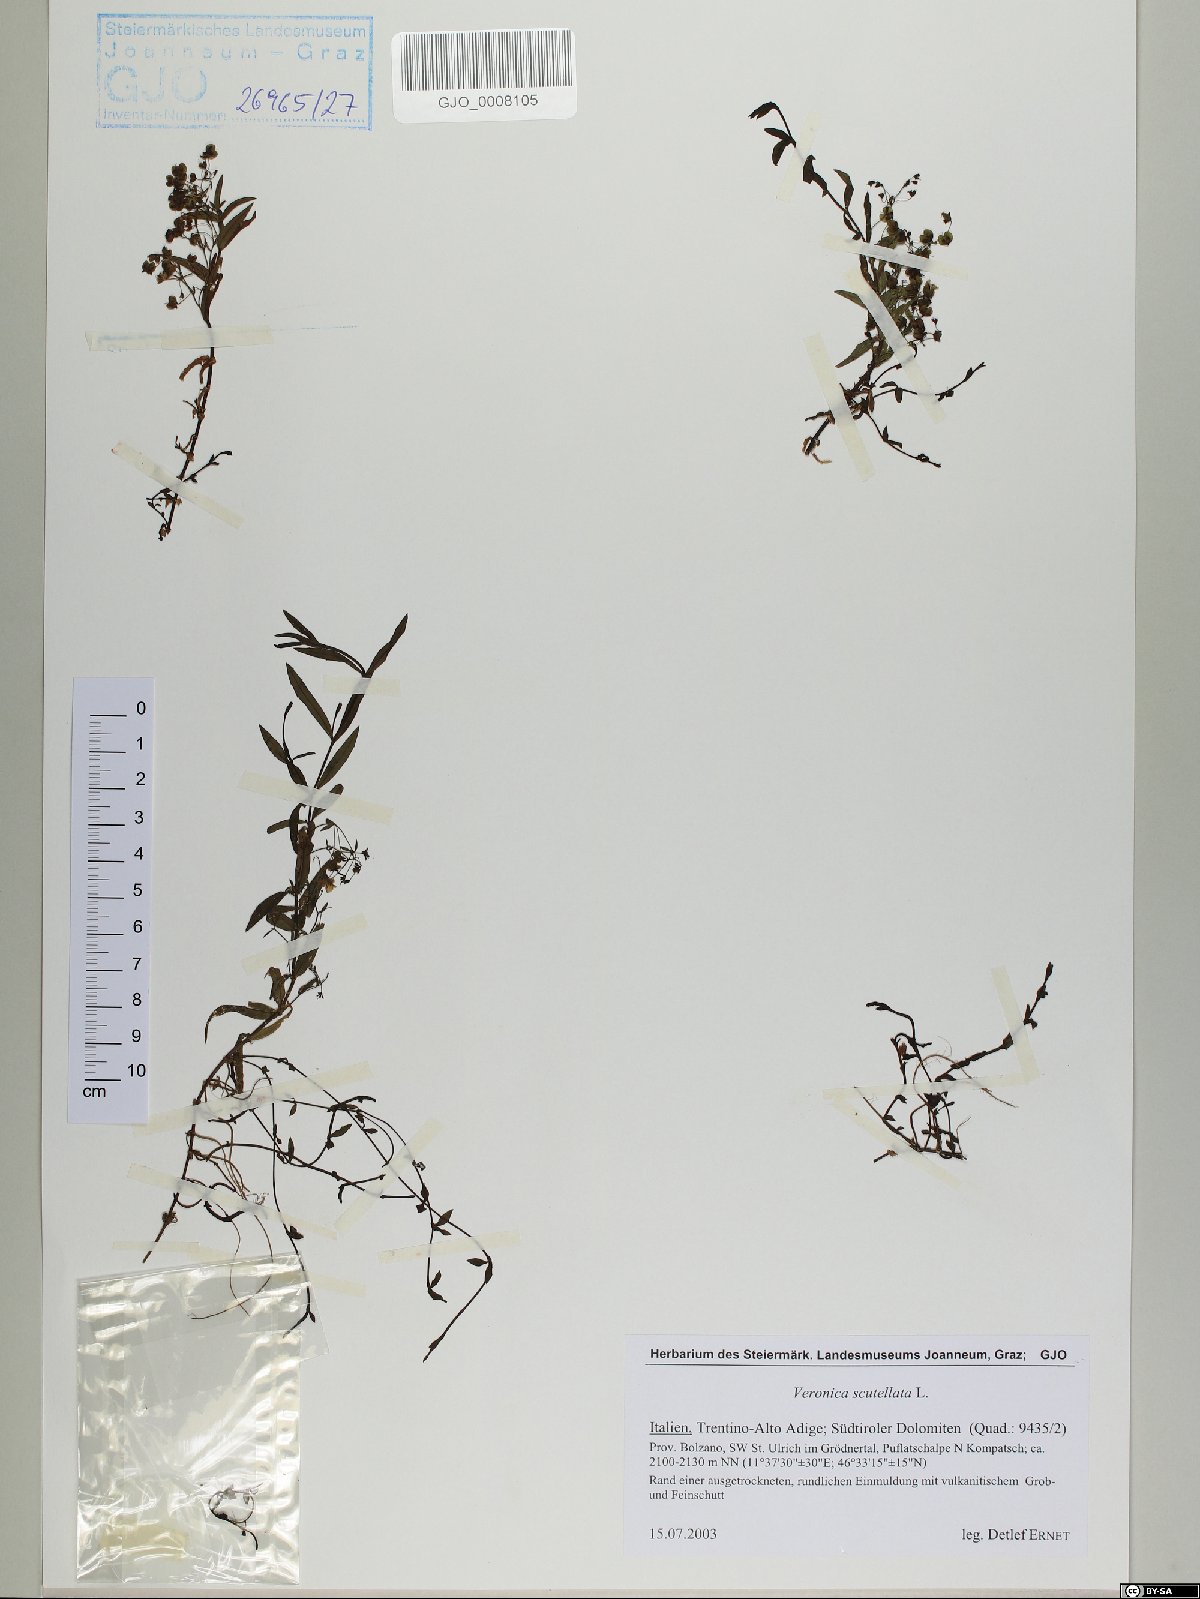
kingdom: Plantae
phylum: Tracheophyta
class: Magnoliopsida
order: Lamiales
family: Plantaginaceae
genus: Veronica
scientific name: Veronica scutellata
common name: Marsh speedwell
